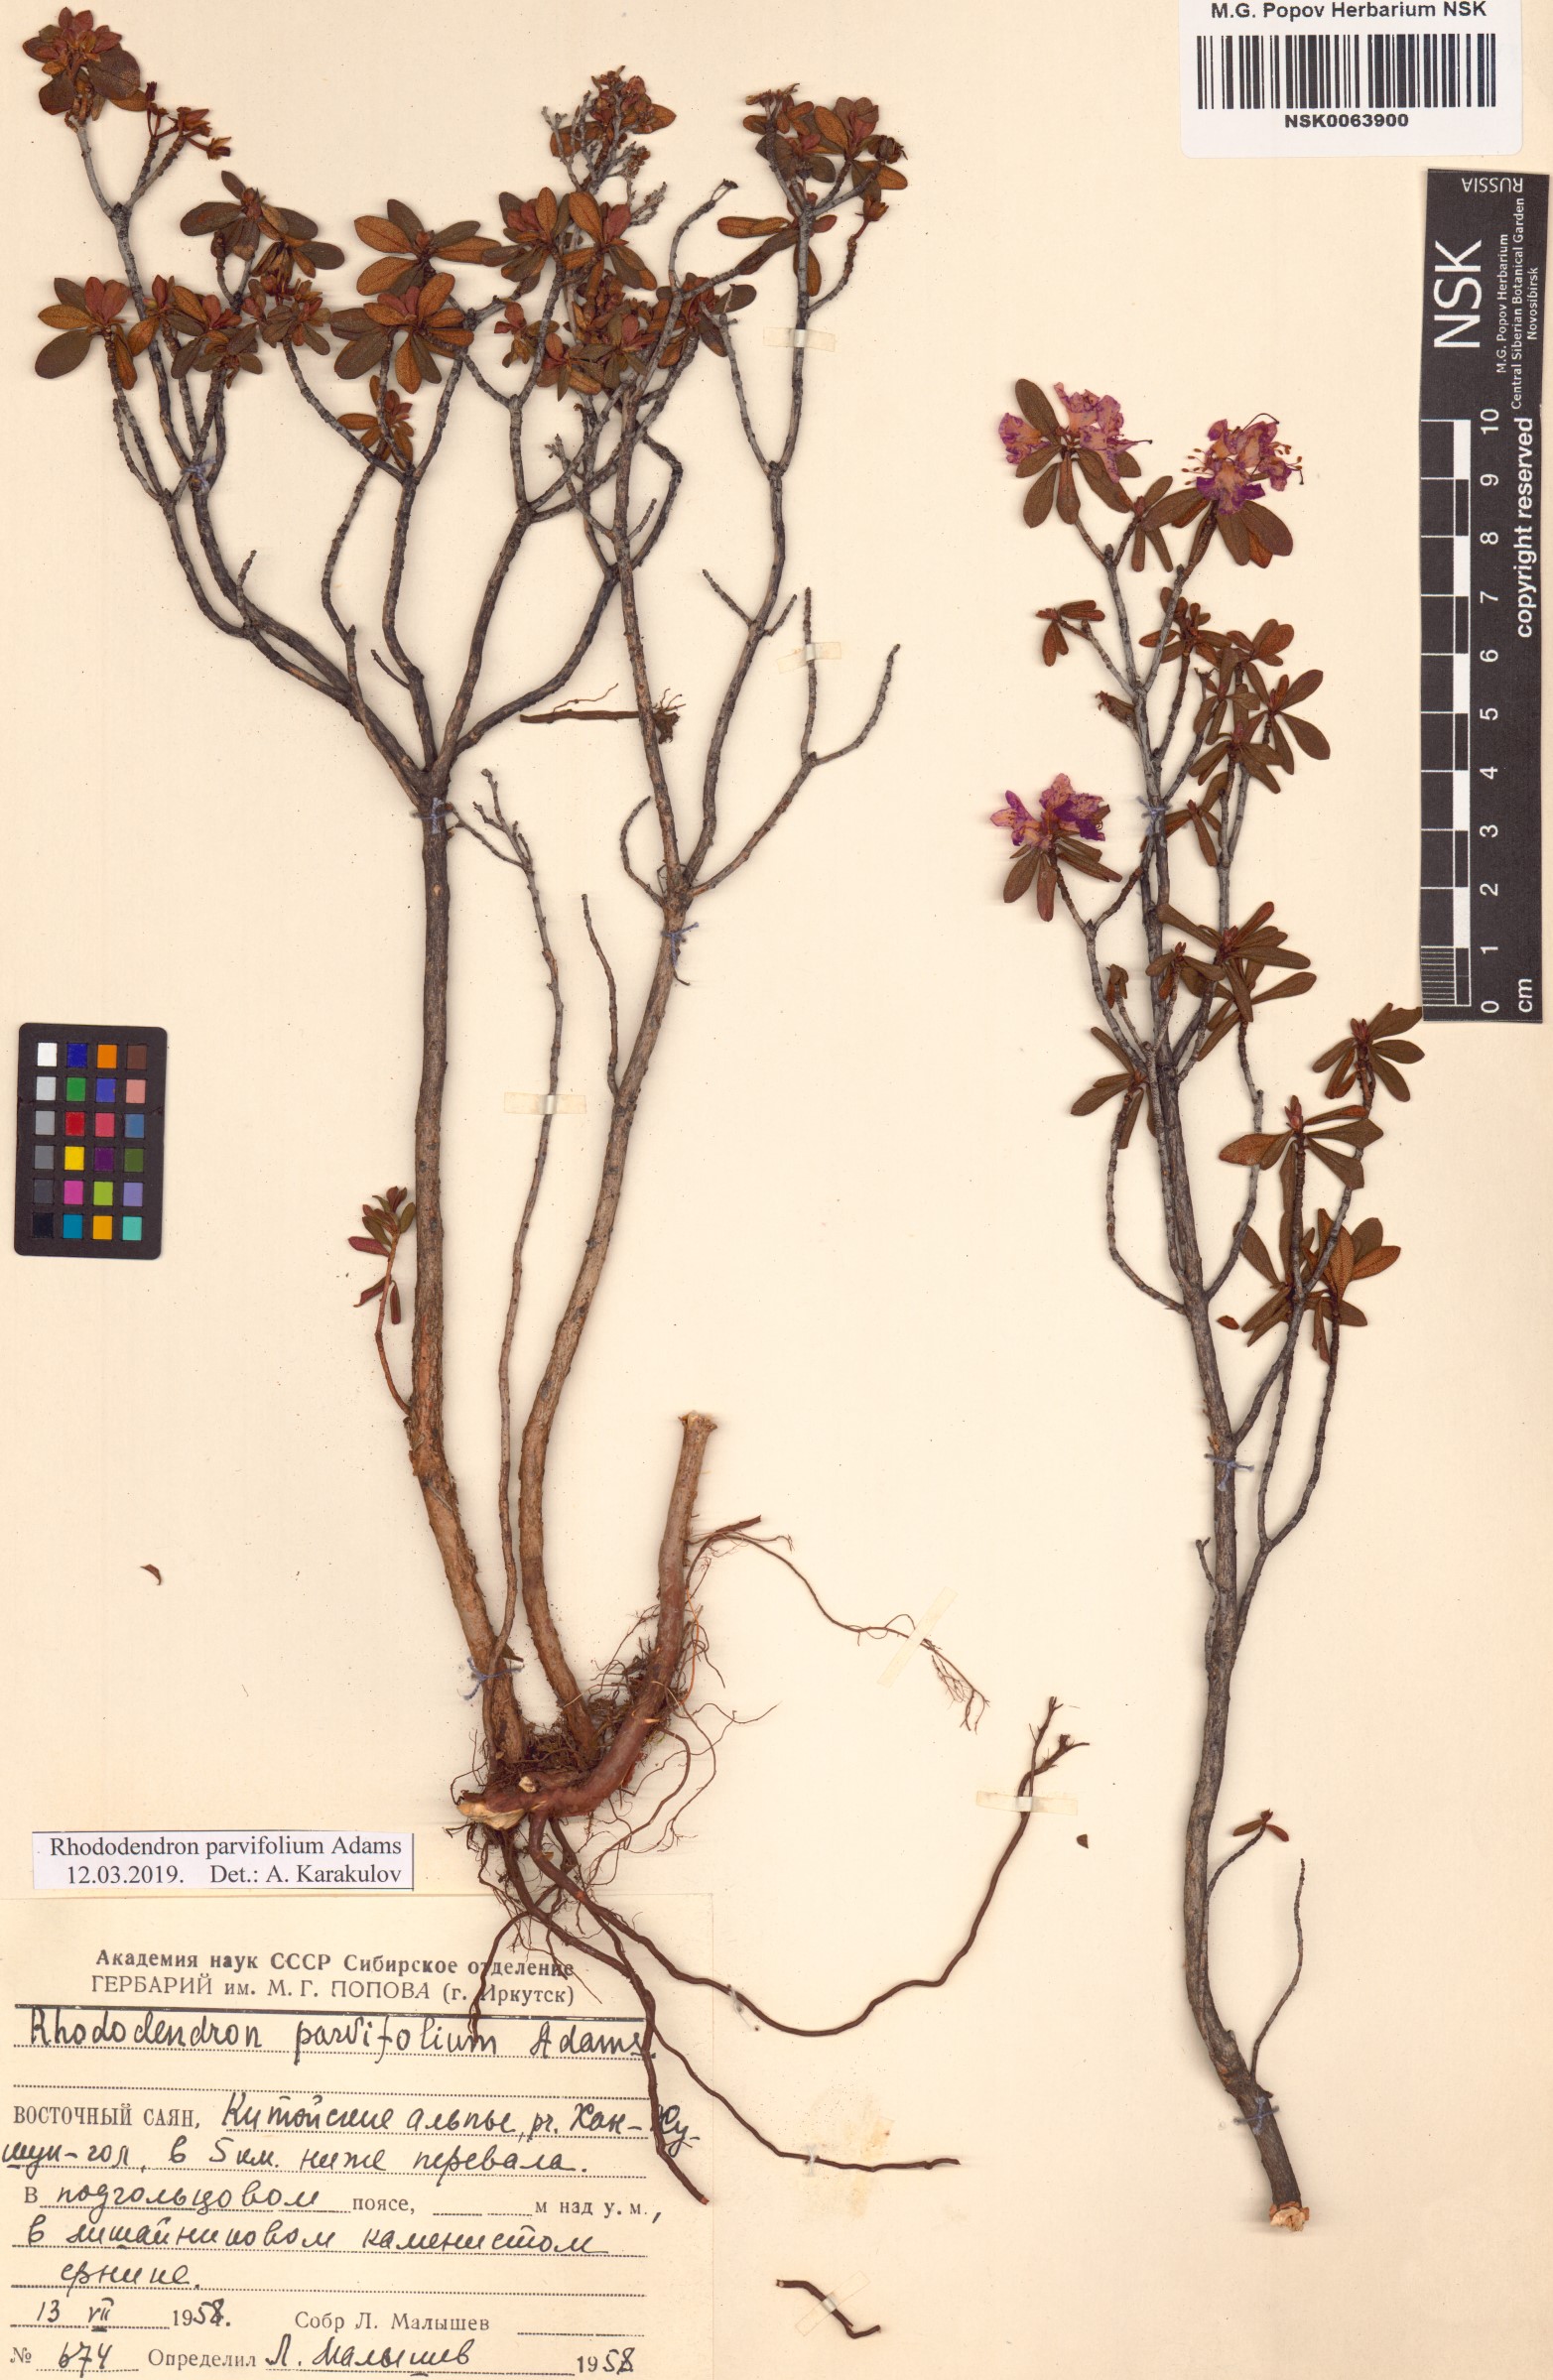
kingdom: Plantae
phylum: Tracheophyta
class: Magnoliopsida
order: Ericales
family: Ericaceae
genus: Rhododendron
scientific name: Rhododendron parvifolium
